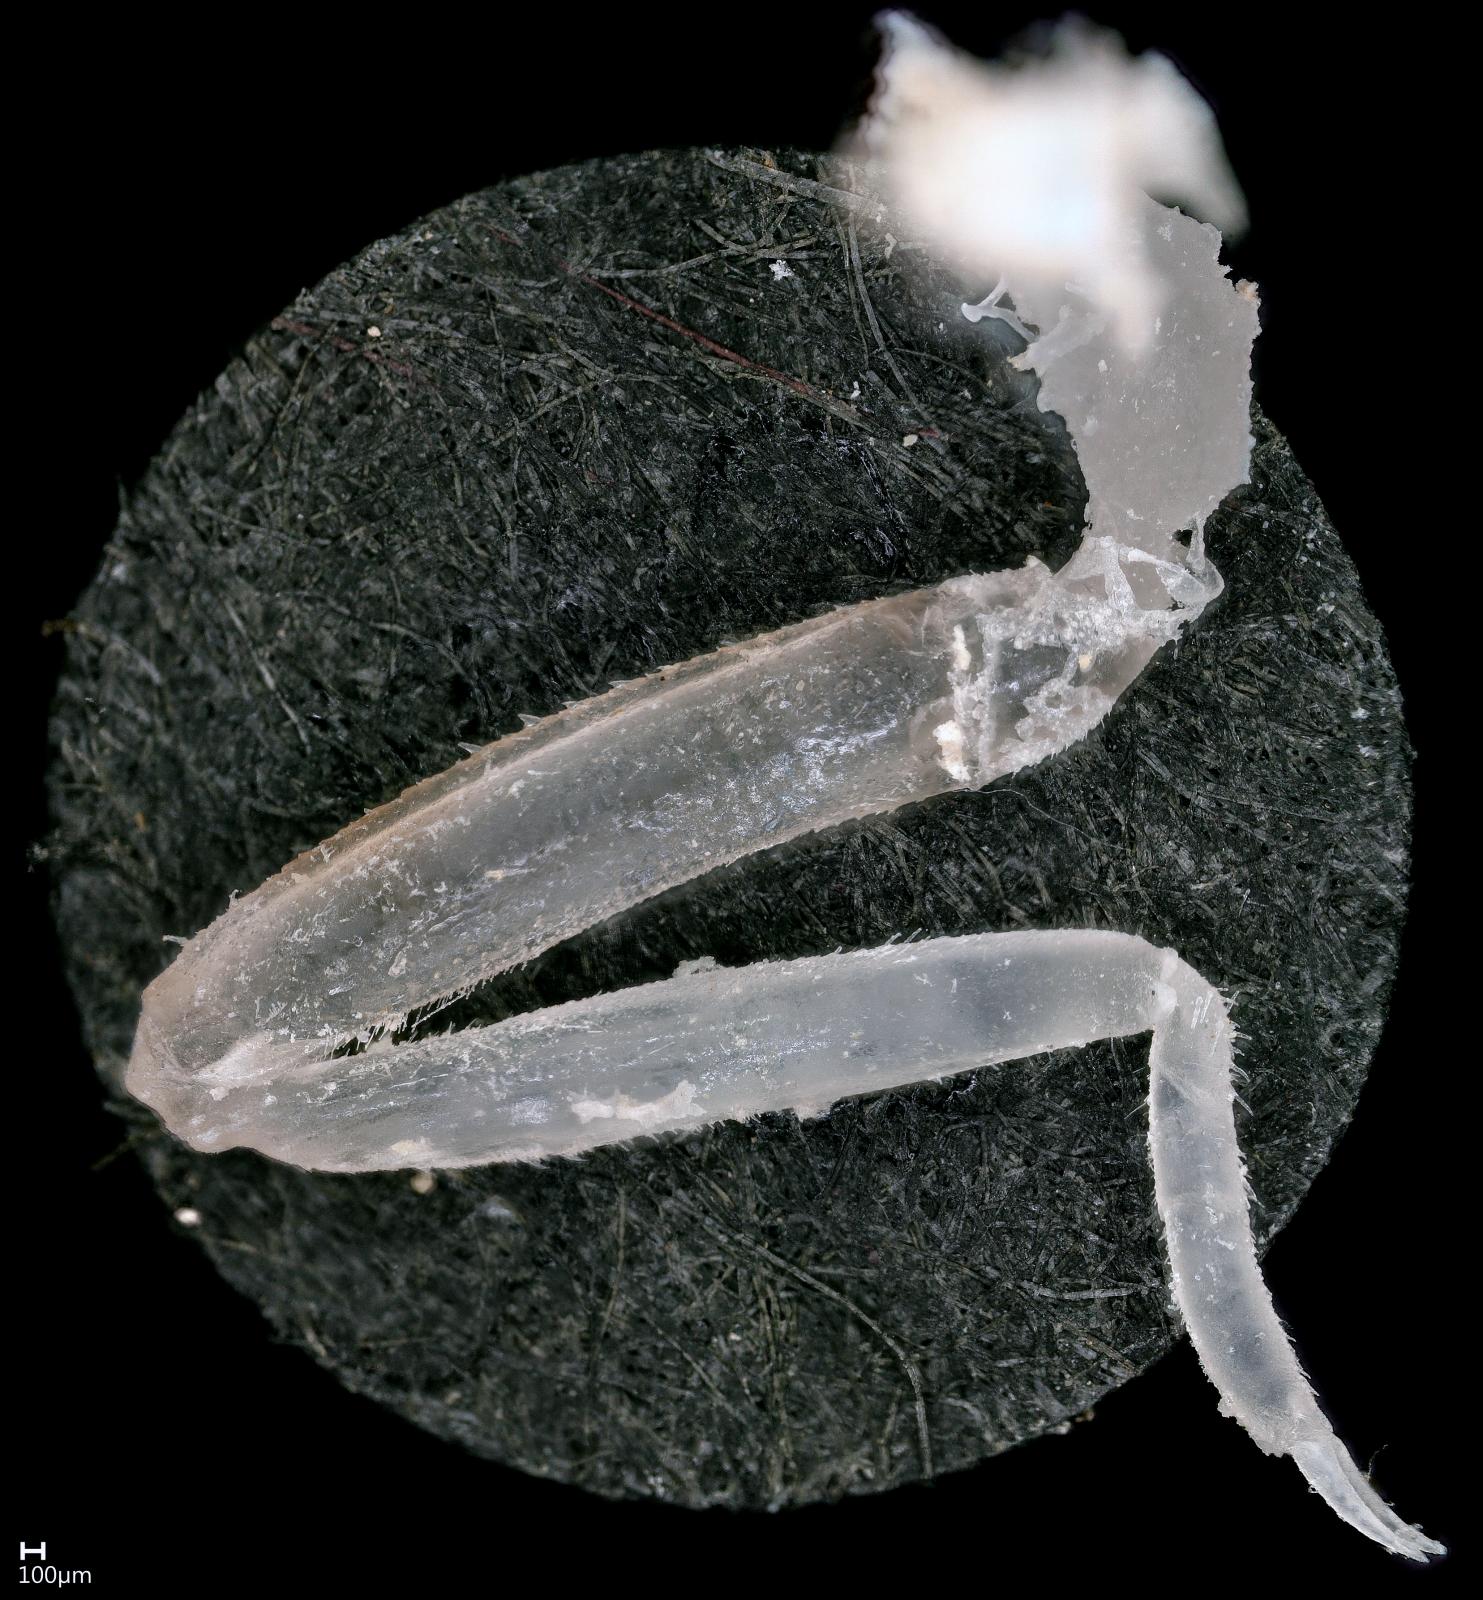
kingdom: Animalia
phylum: Arthropoda
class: Insecta
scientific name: Insecta
